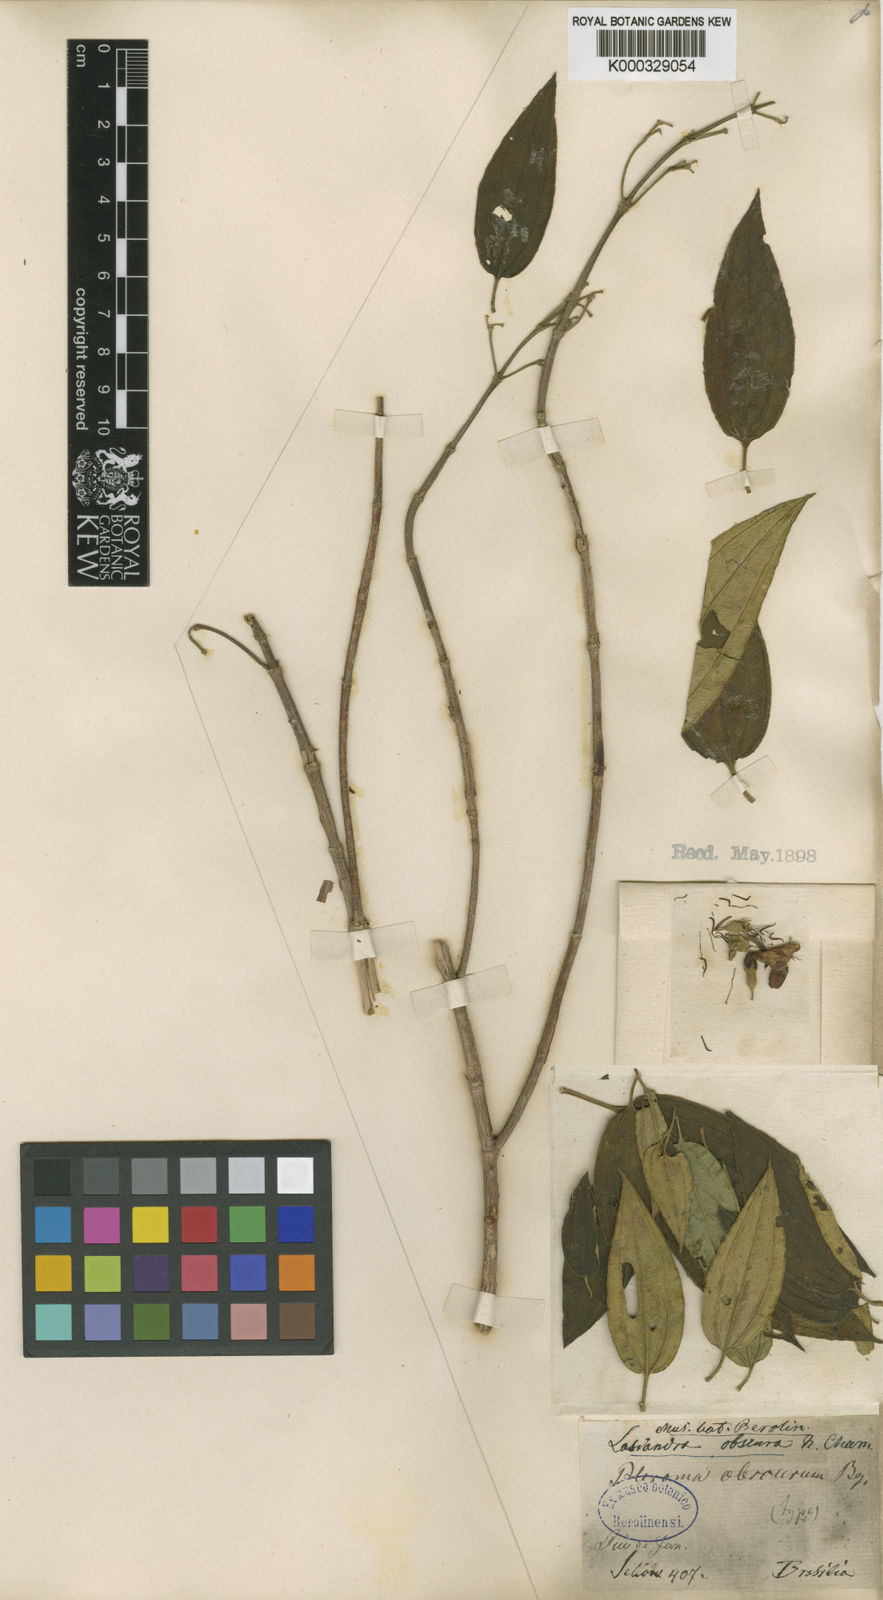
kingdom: Plantae
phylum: Tracheophyta
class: Magnoliopsida
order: Myrtales
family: Melastomataceae
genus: Pleroma
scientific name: Pleroma vimineum
